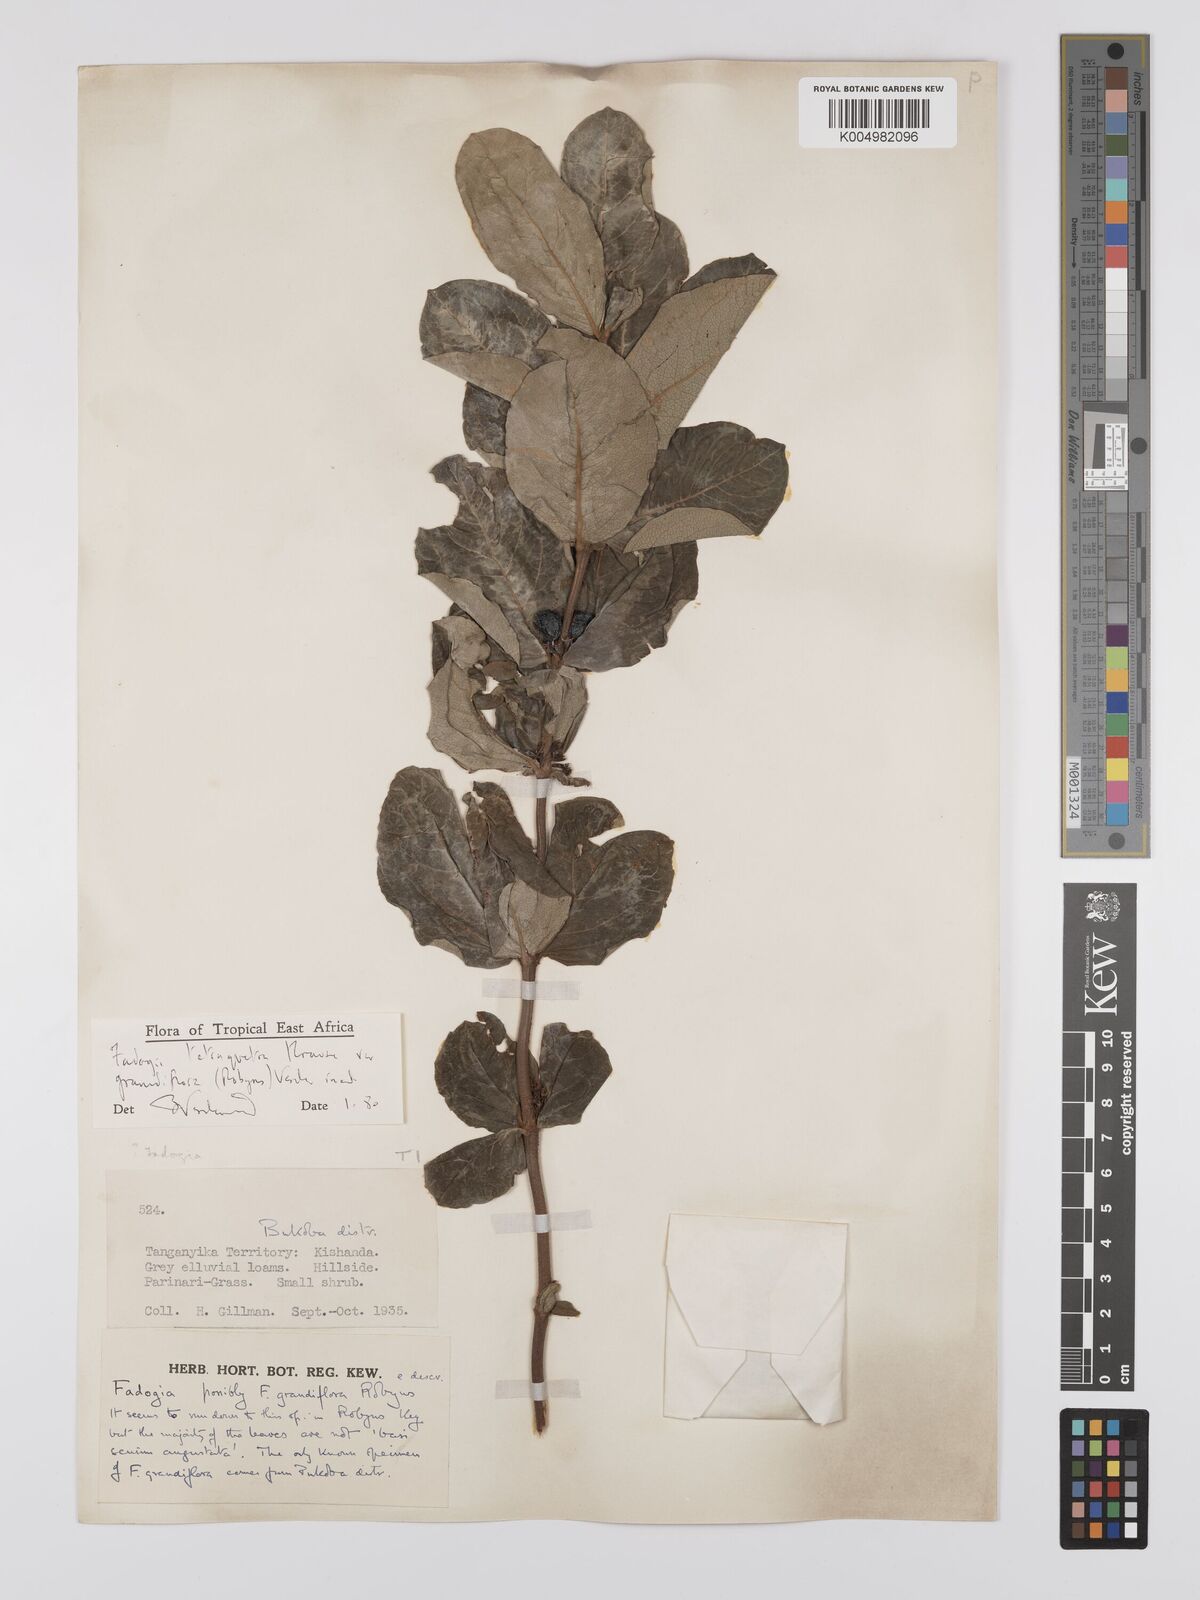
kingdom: Plantae
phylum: Tracheophyta
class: Magnoliopsida
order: Gentianales
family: Rubiaceae
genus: Fadogia
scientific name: Fadogia tetraquetra
